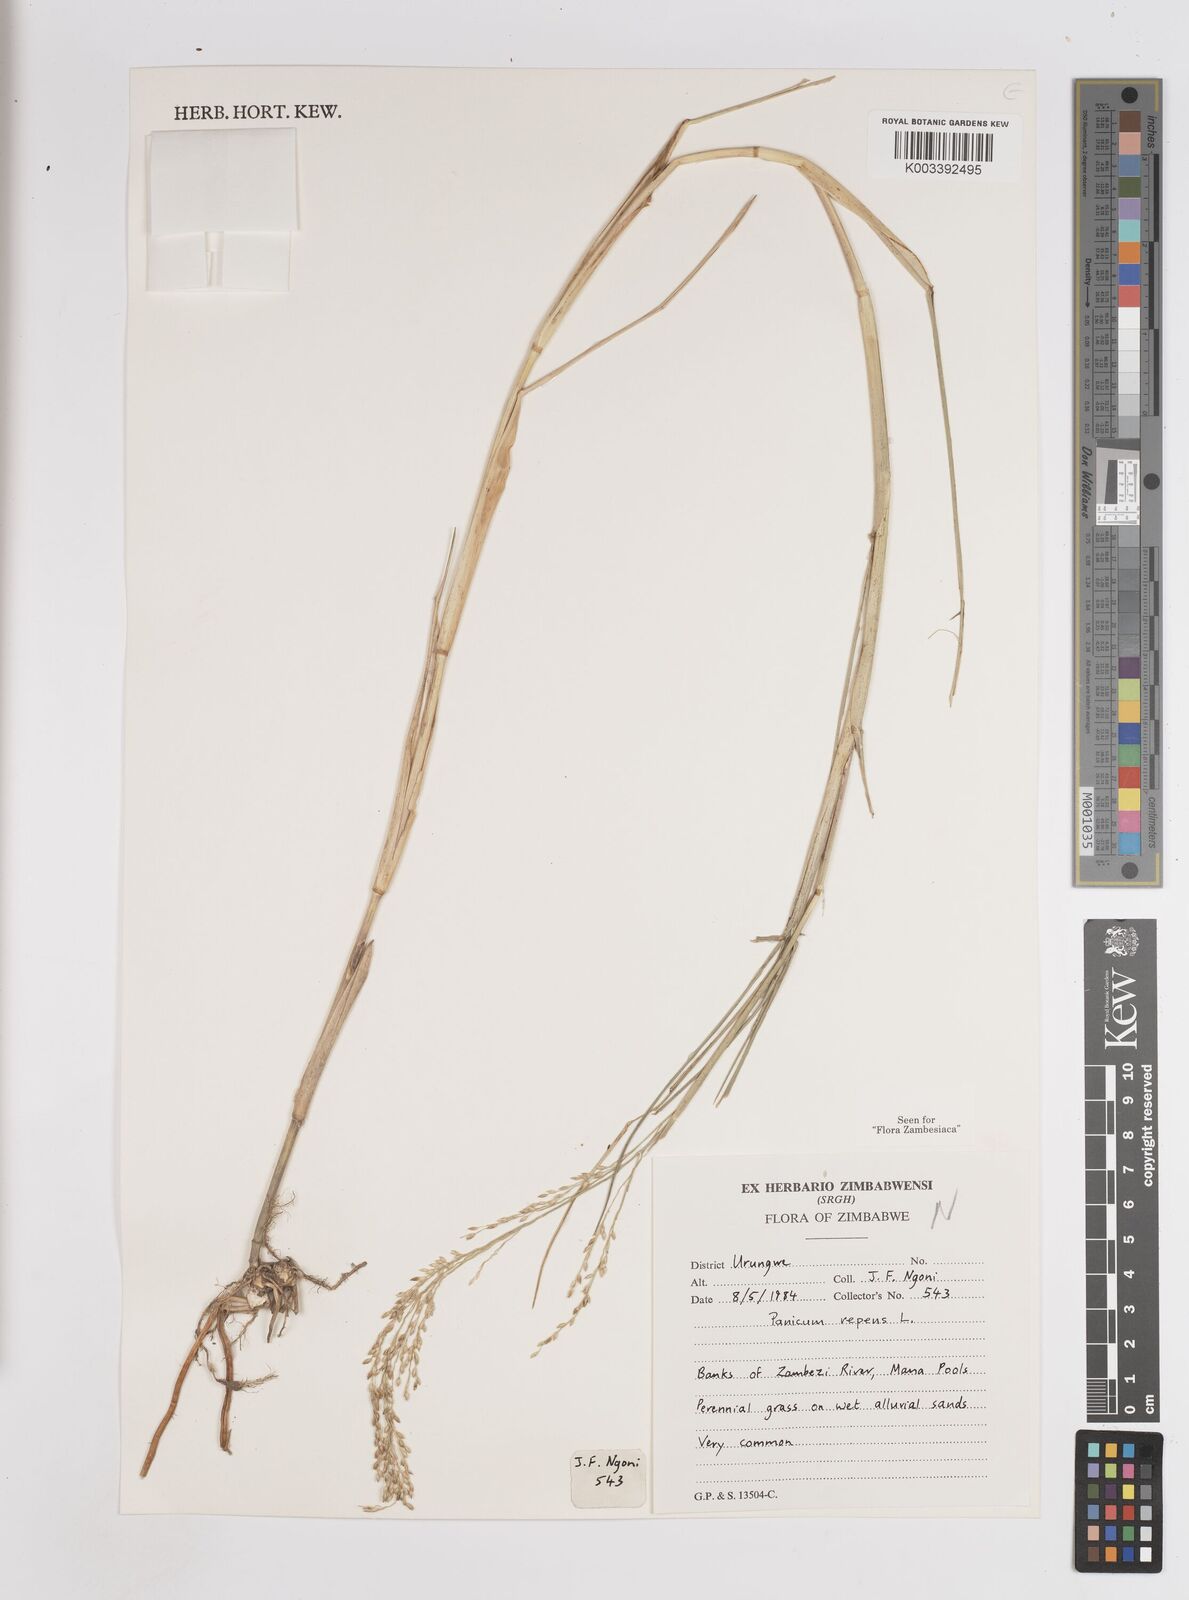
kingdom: Plantae
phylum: Tracheophyta
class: Liliopsida
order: Poales
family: Poaceae
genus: Panicum
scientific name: Panicum repens
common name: Torpedo grass
